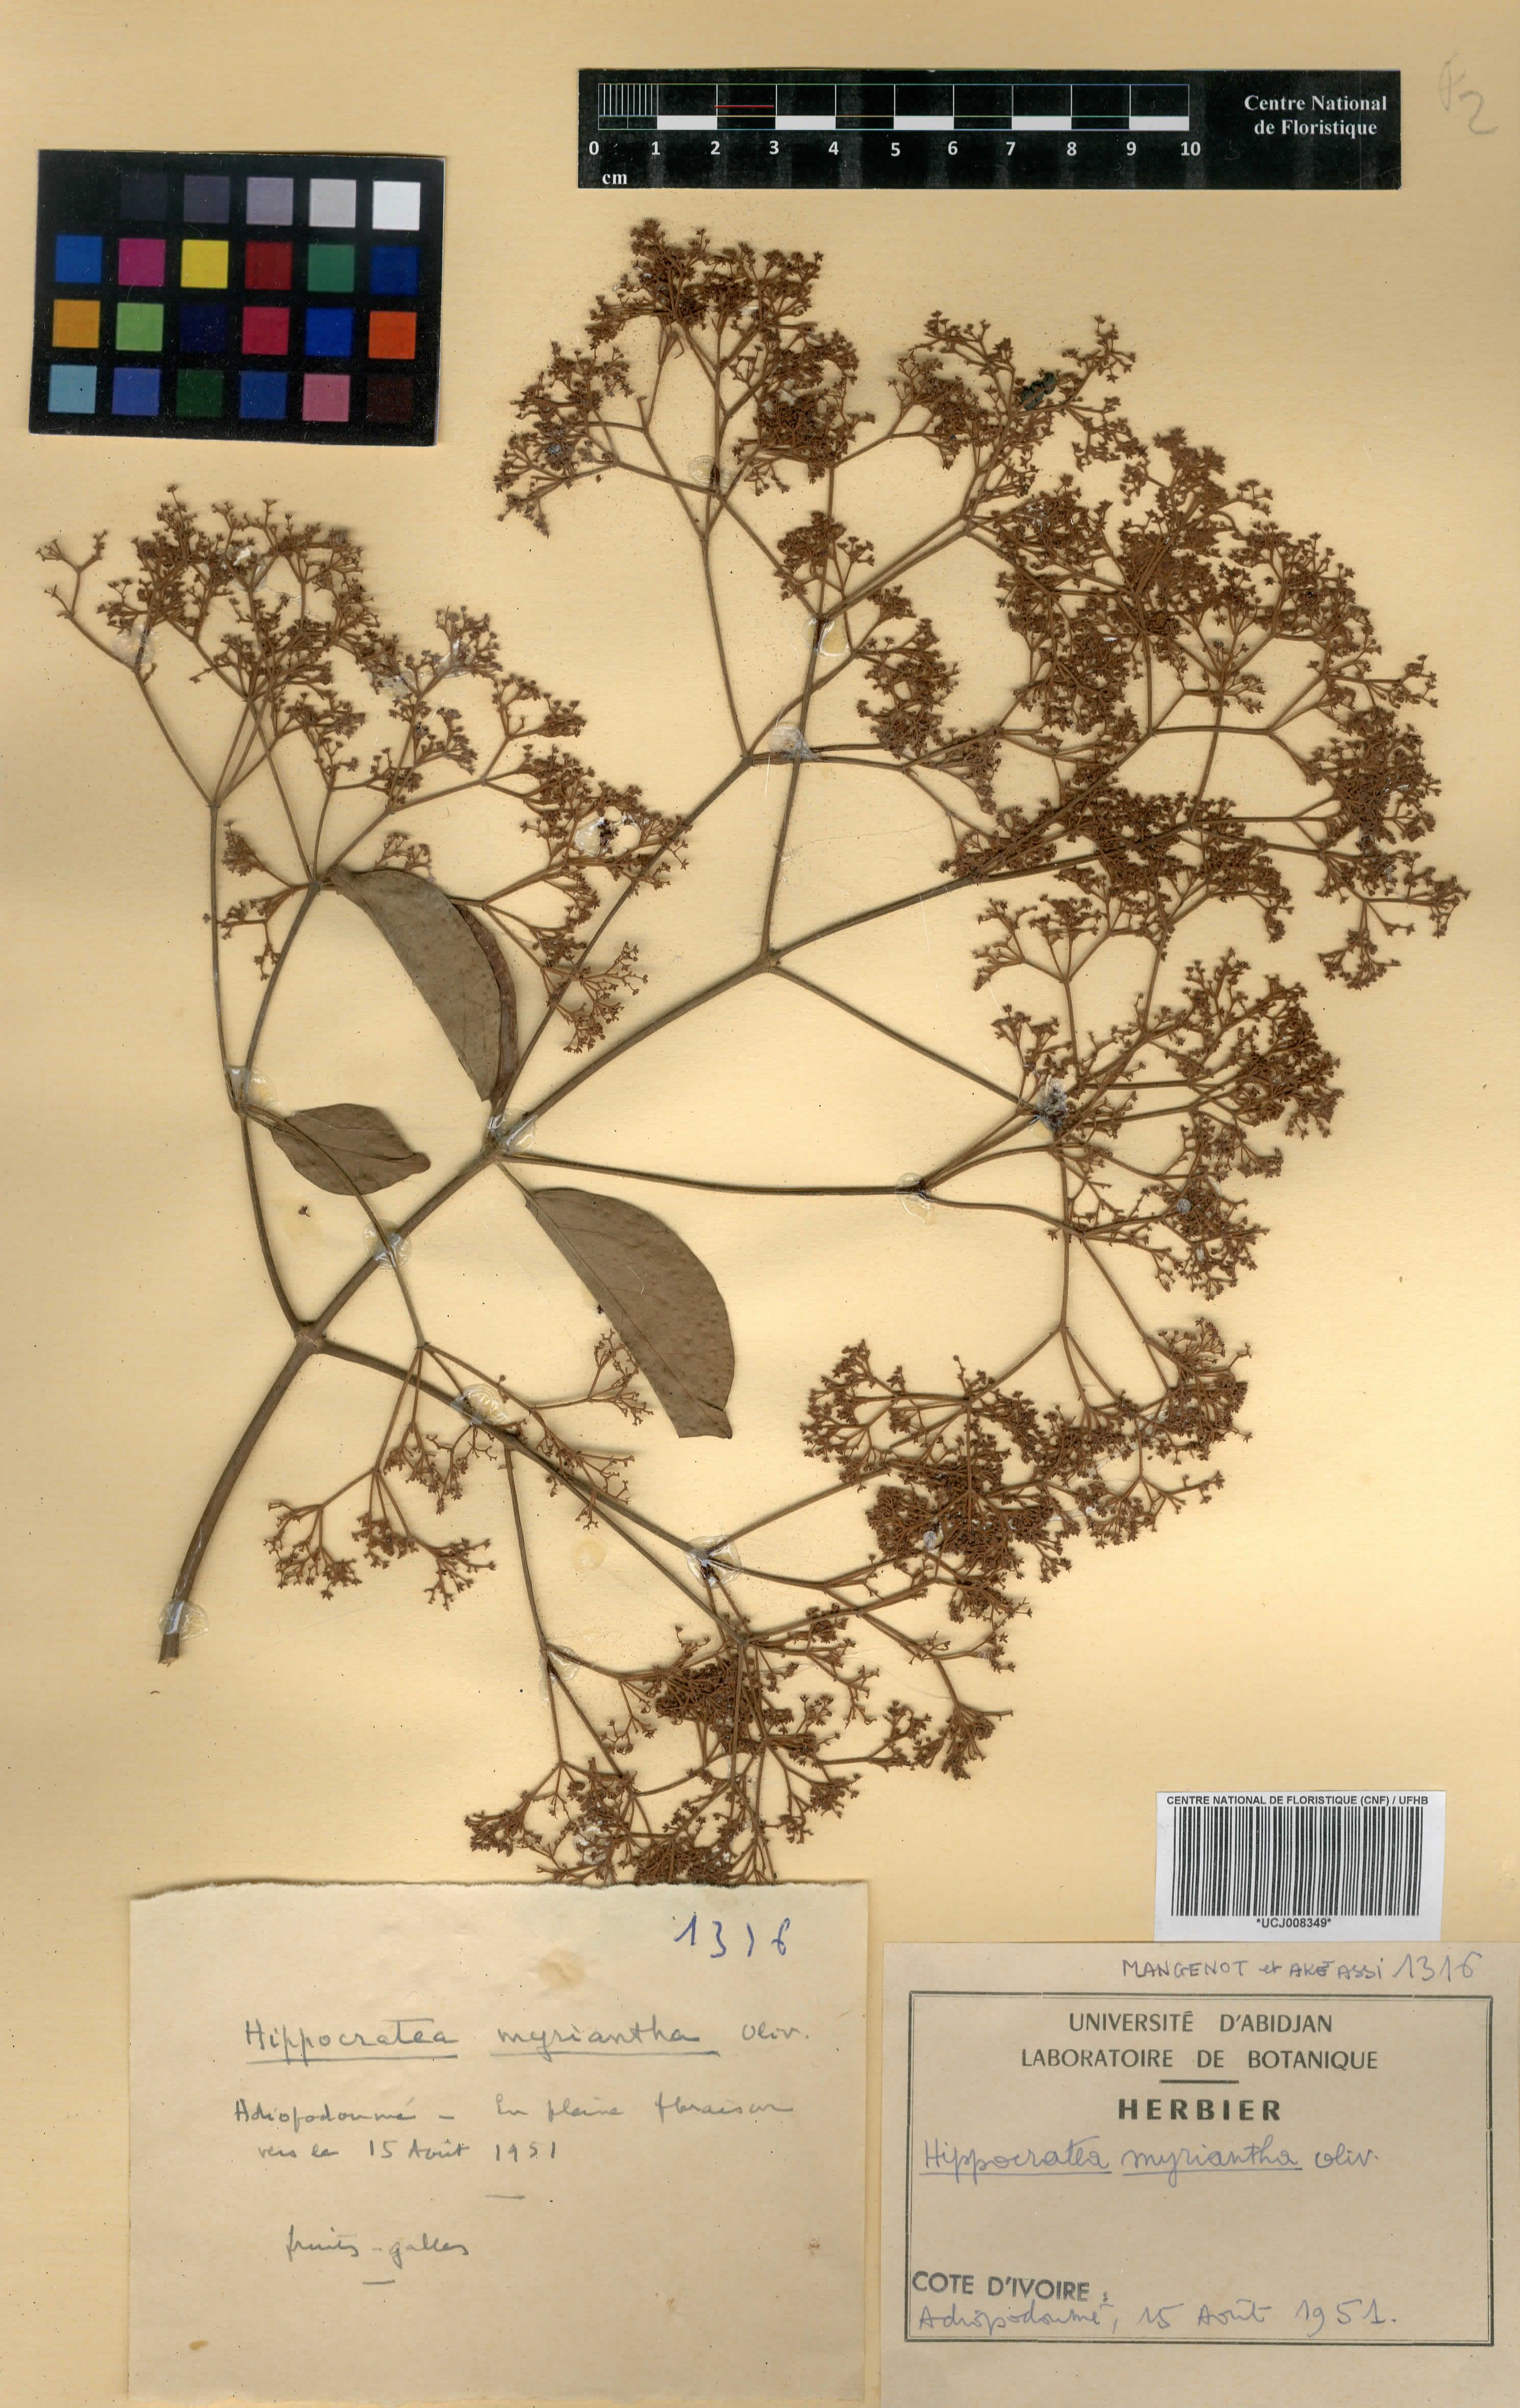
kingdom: Plantae
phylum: Tracheophyta
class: Magnoliopsida
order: Celastrales
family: Celastraceae
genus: Hippocratea
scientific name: Hippocratea myriantha
